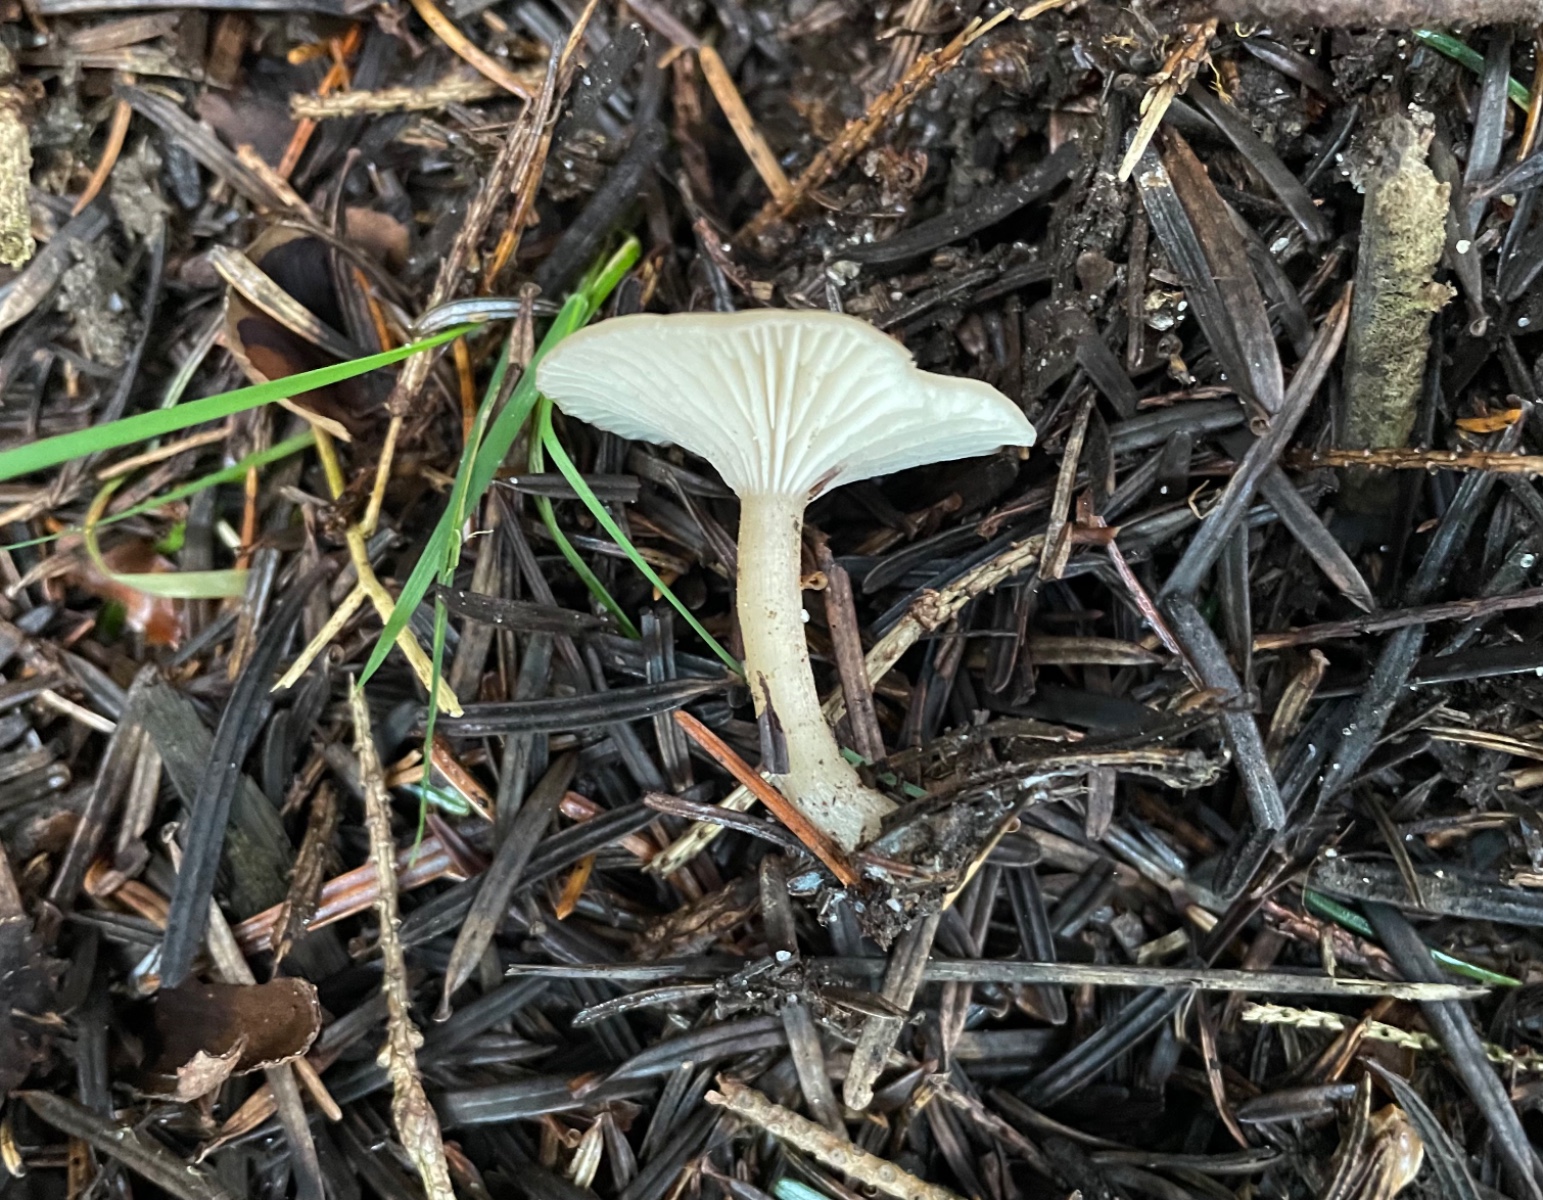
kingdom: Fungi
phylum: Basidiomycota
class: Agaricomycetes
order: Agaricales
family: Tricholomataceae
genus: Clitocybe
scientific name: Clitocybe fragrans
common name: vellugtende tragthat
